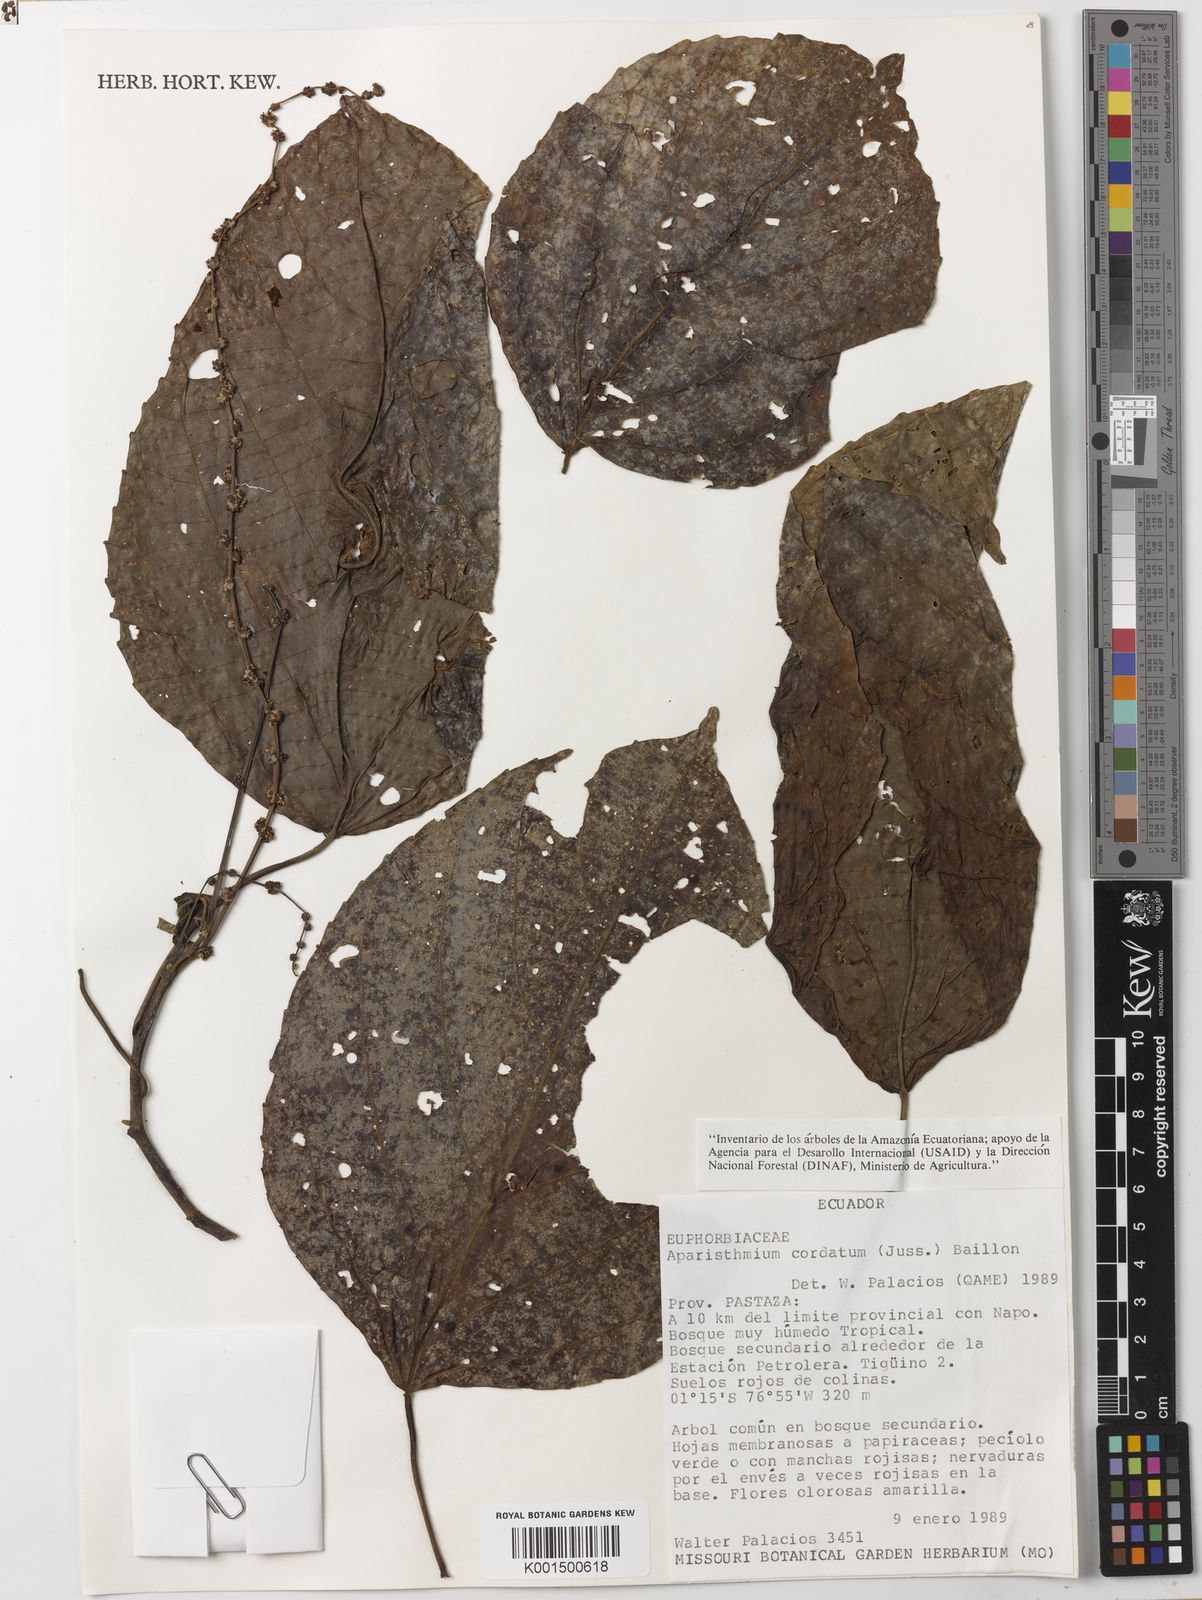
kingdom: Plantae
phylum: Tracheophyta
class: Magnoliopsida
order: Malpighiales
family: Euphorbiaceae
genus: Aparisthmium
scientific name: Aparisthmium cordatum
